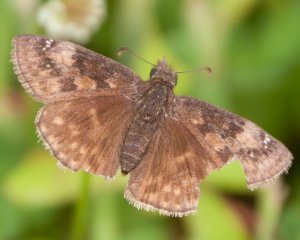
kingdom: Animalia
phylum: Arthropoda
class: Insecta
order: Lepidoptera
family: Hesperiidae
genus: Gesta
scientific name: Gesta
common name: Wild Indigo Duskywing
